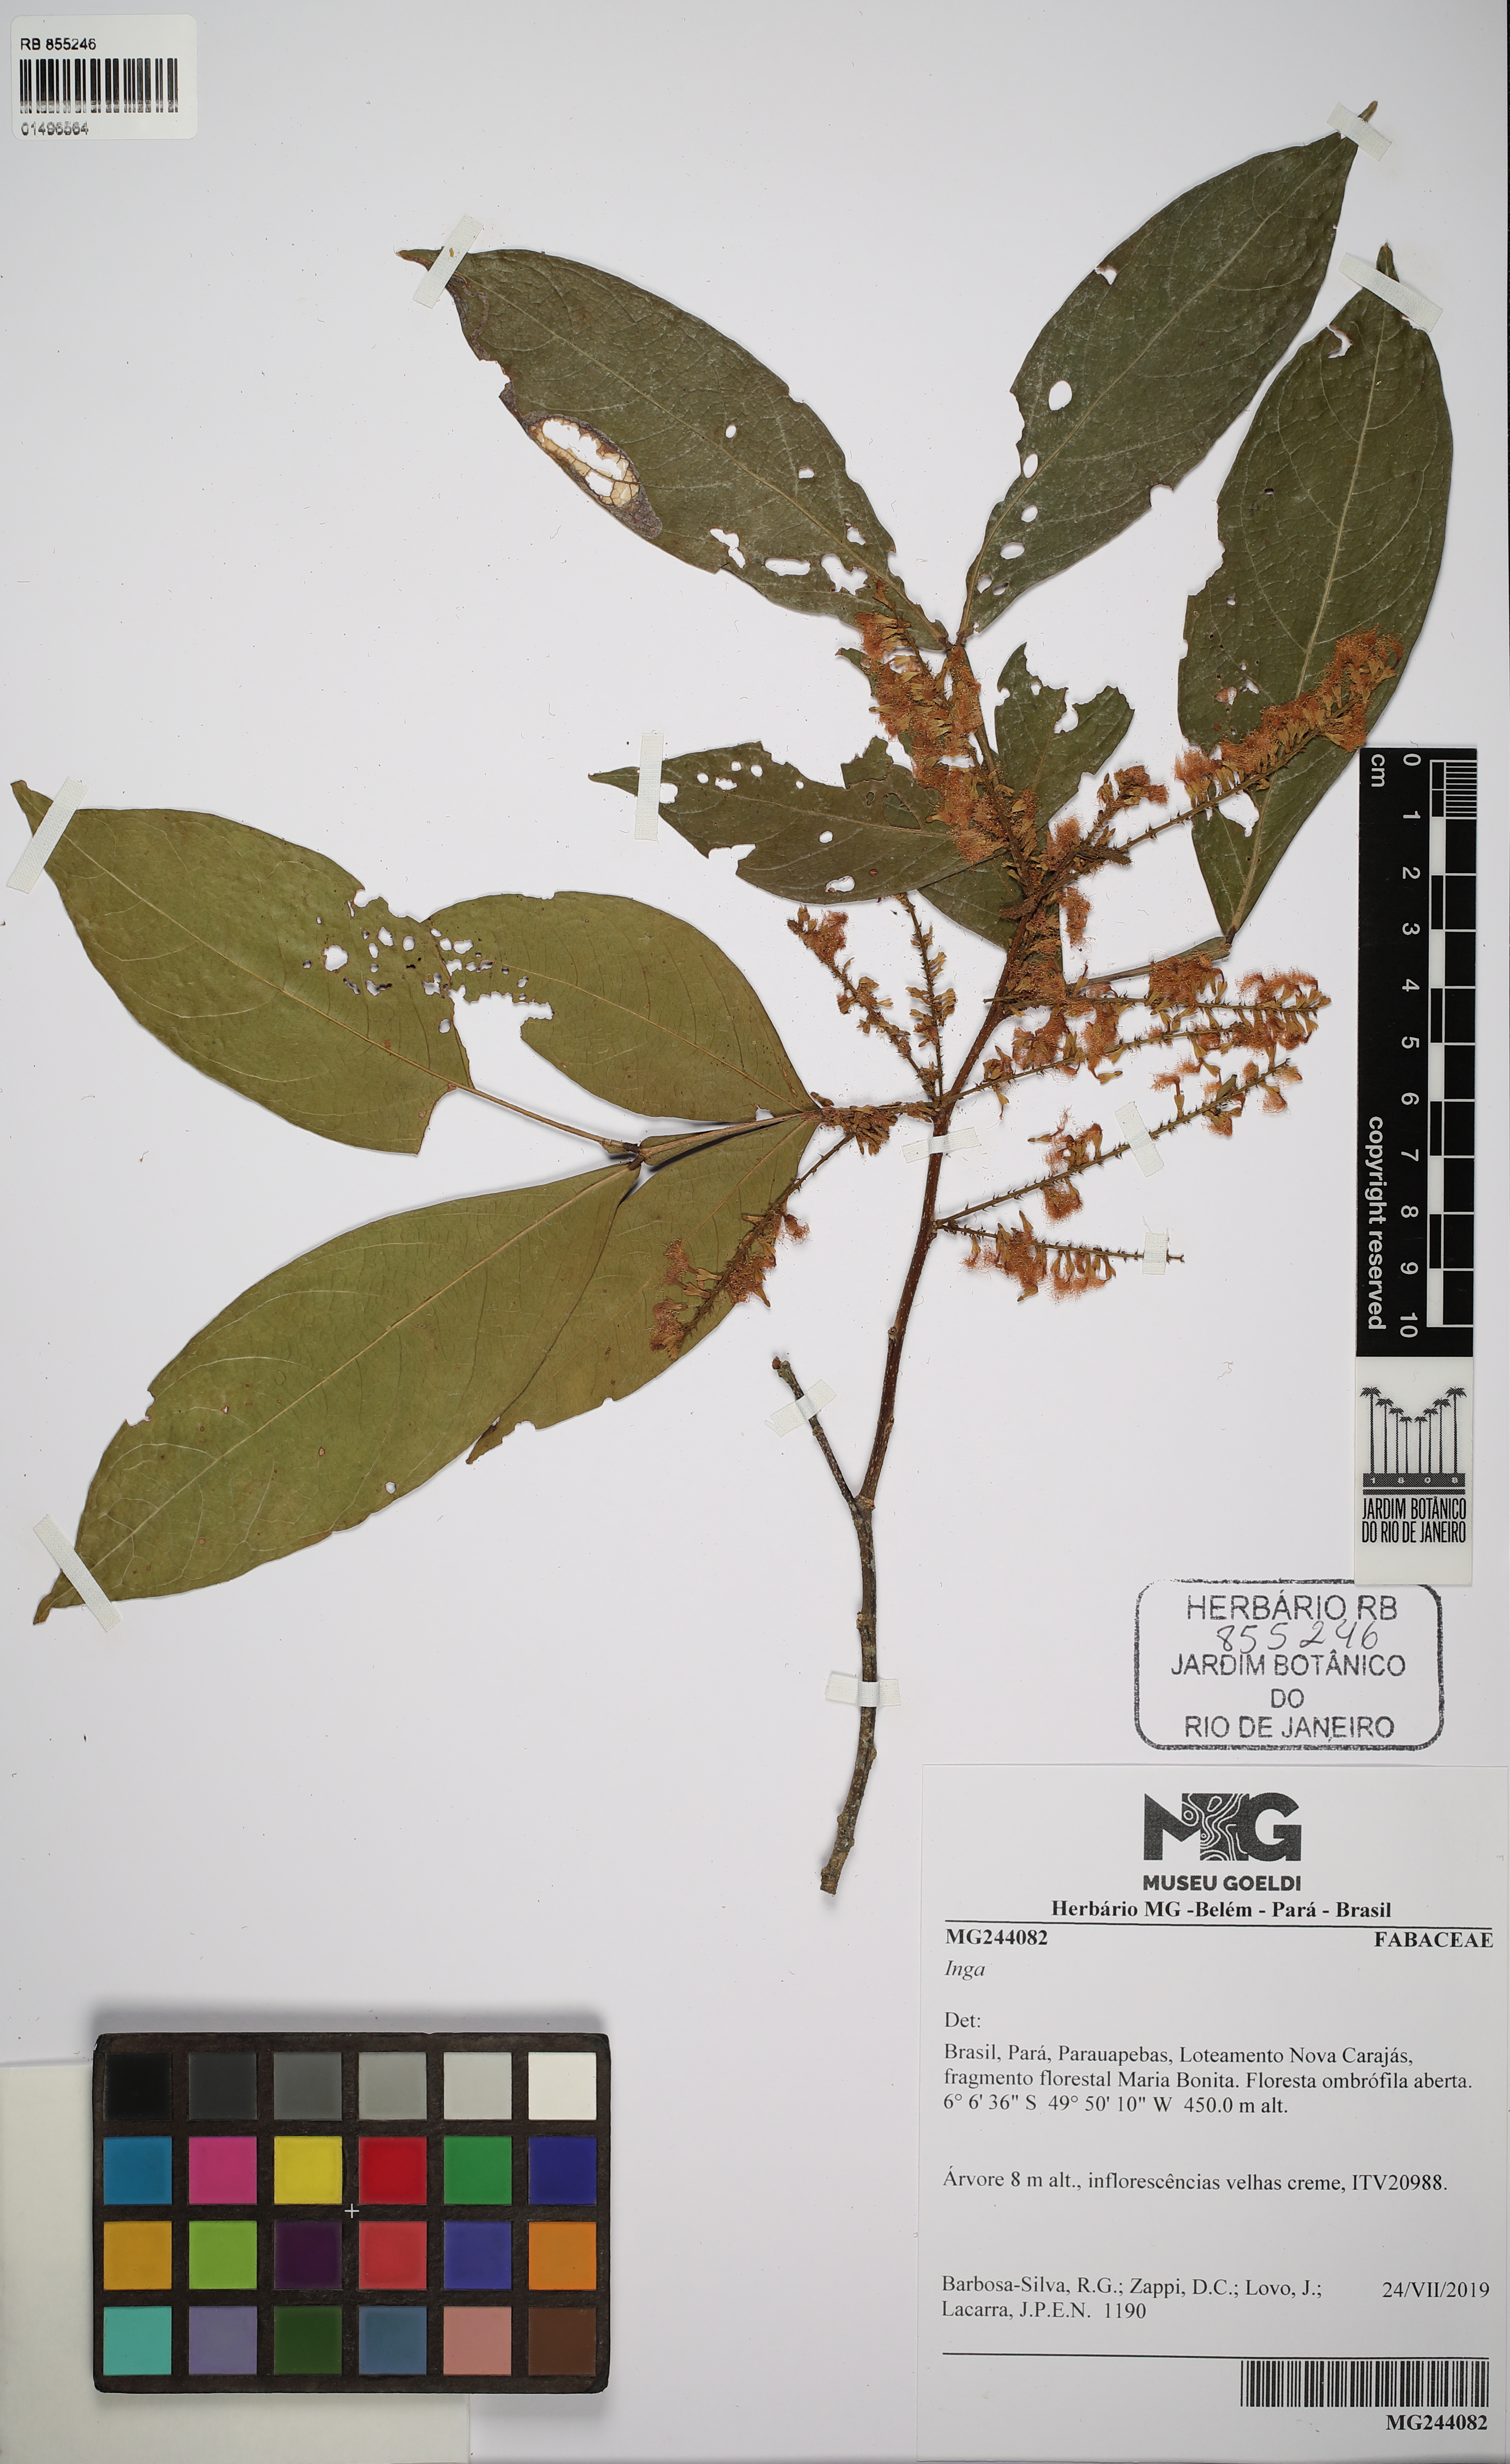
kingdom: Plantae
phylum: Tracheophyta
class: Magnoliopsida
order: Fabales
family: Fabaceae
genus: Inga
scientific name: Inga
